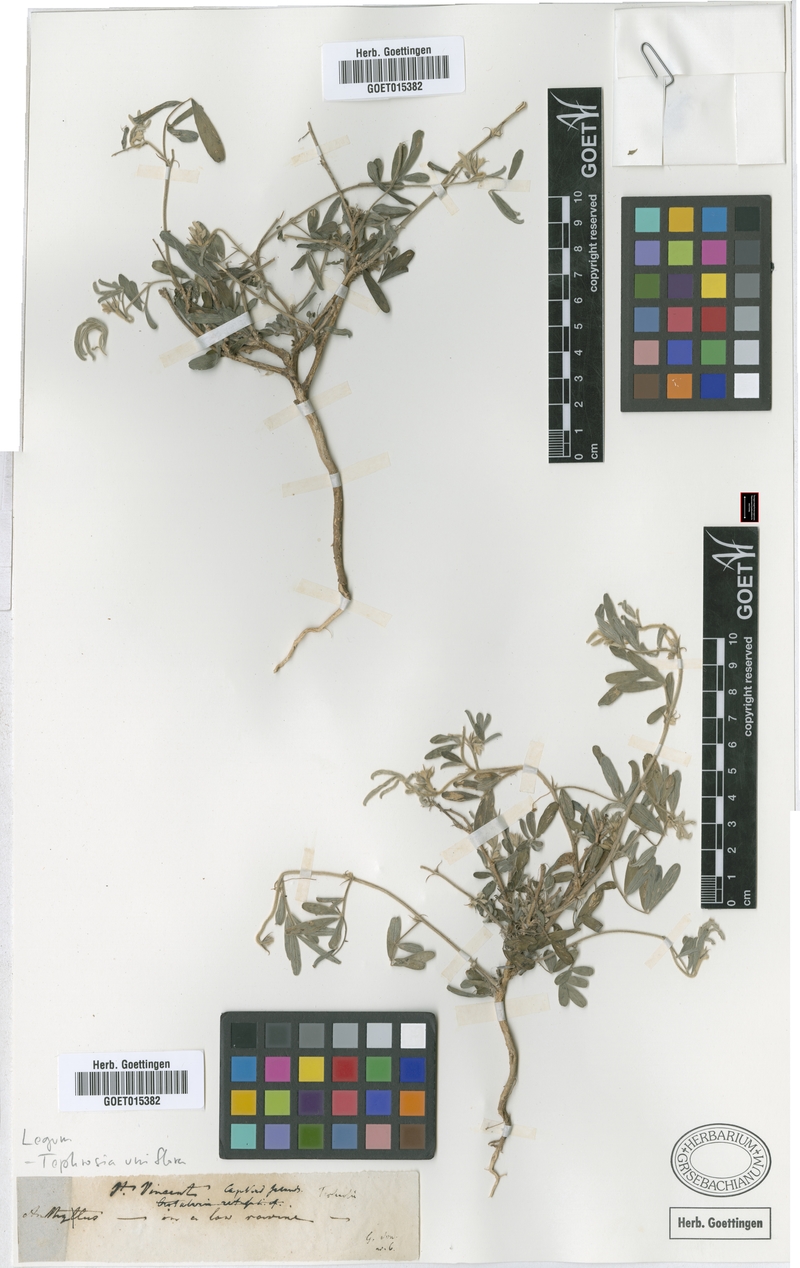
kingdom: Plantae
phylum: Tracheophyta
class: Magnoliopsida
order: Fabales
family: Fabaceae
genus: Tephrosia
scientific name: Tephrosia uniflora
